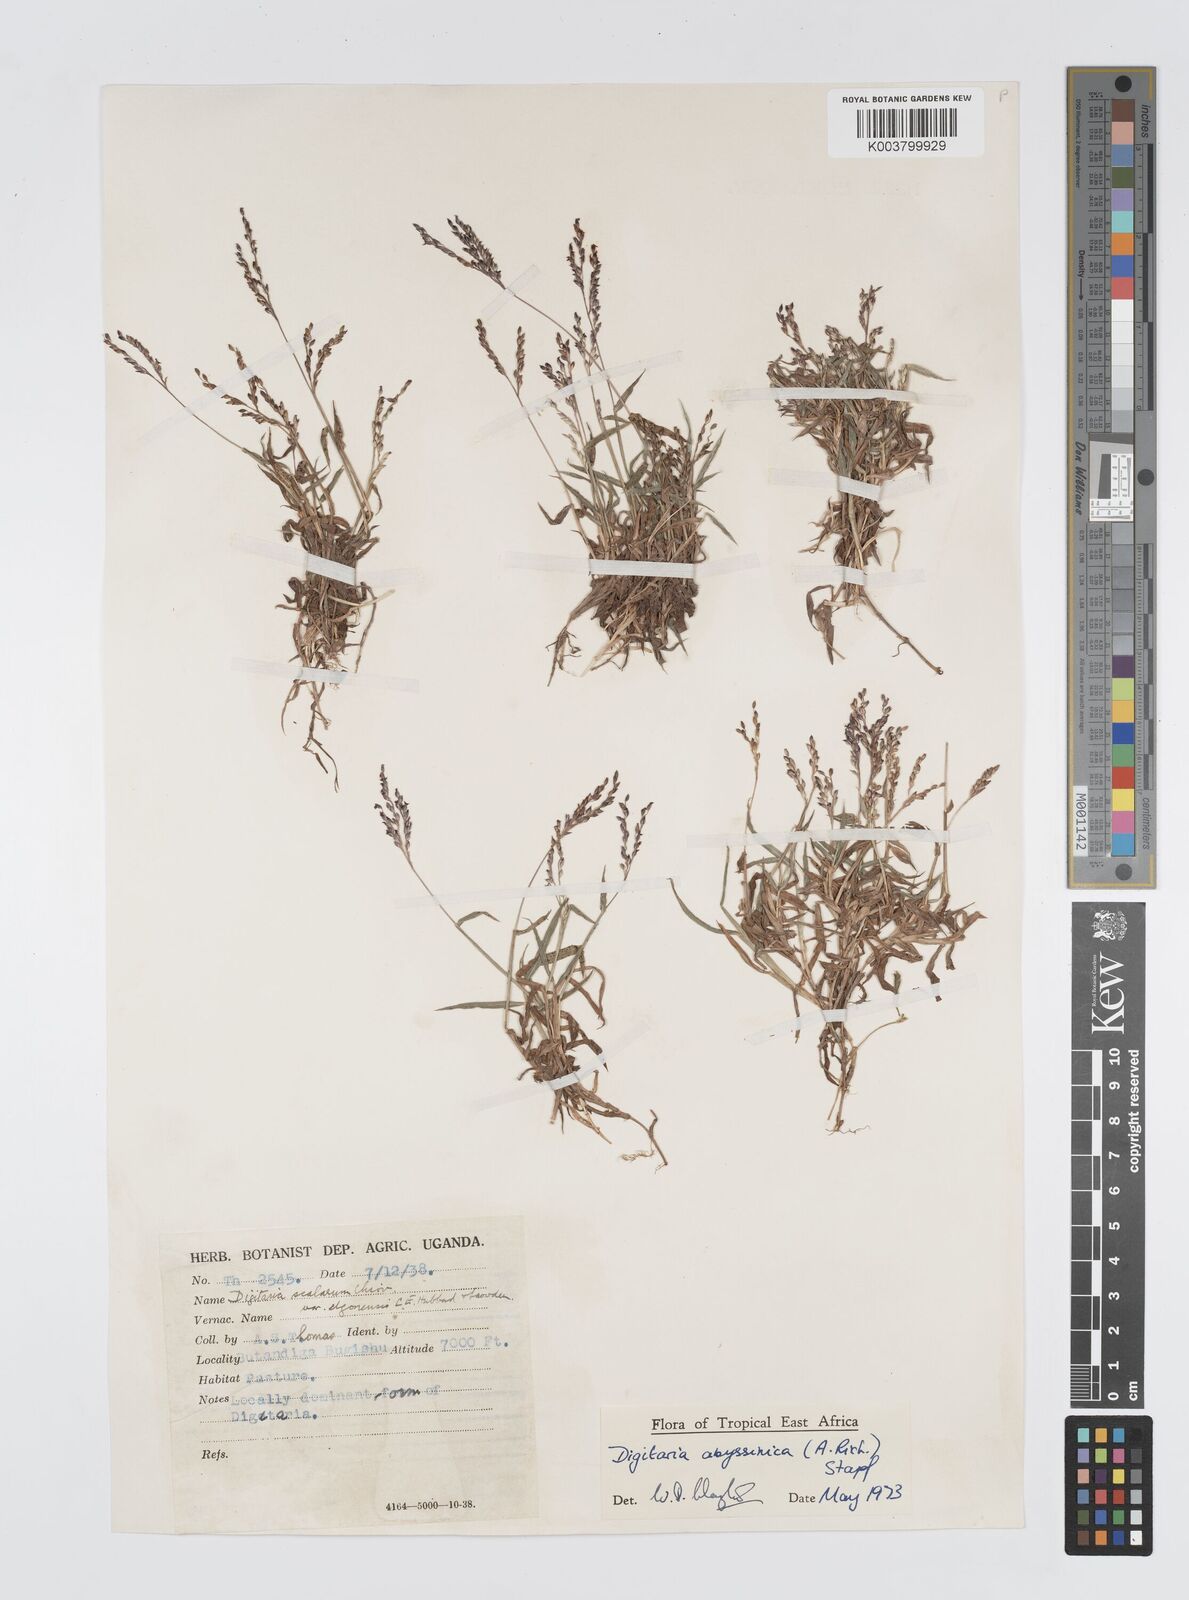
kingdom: Plantae
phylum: Tracheophyta
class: Liliopsida
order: Poales
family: Poaceae
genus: Digitaria
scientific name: Digitaria abyssinica
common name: African couchgrass
